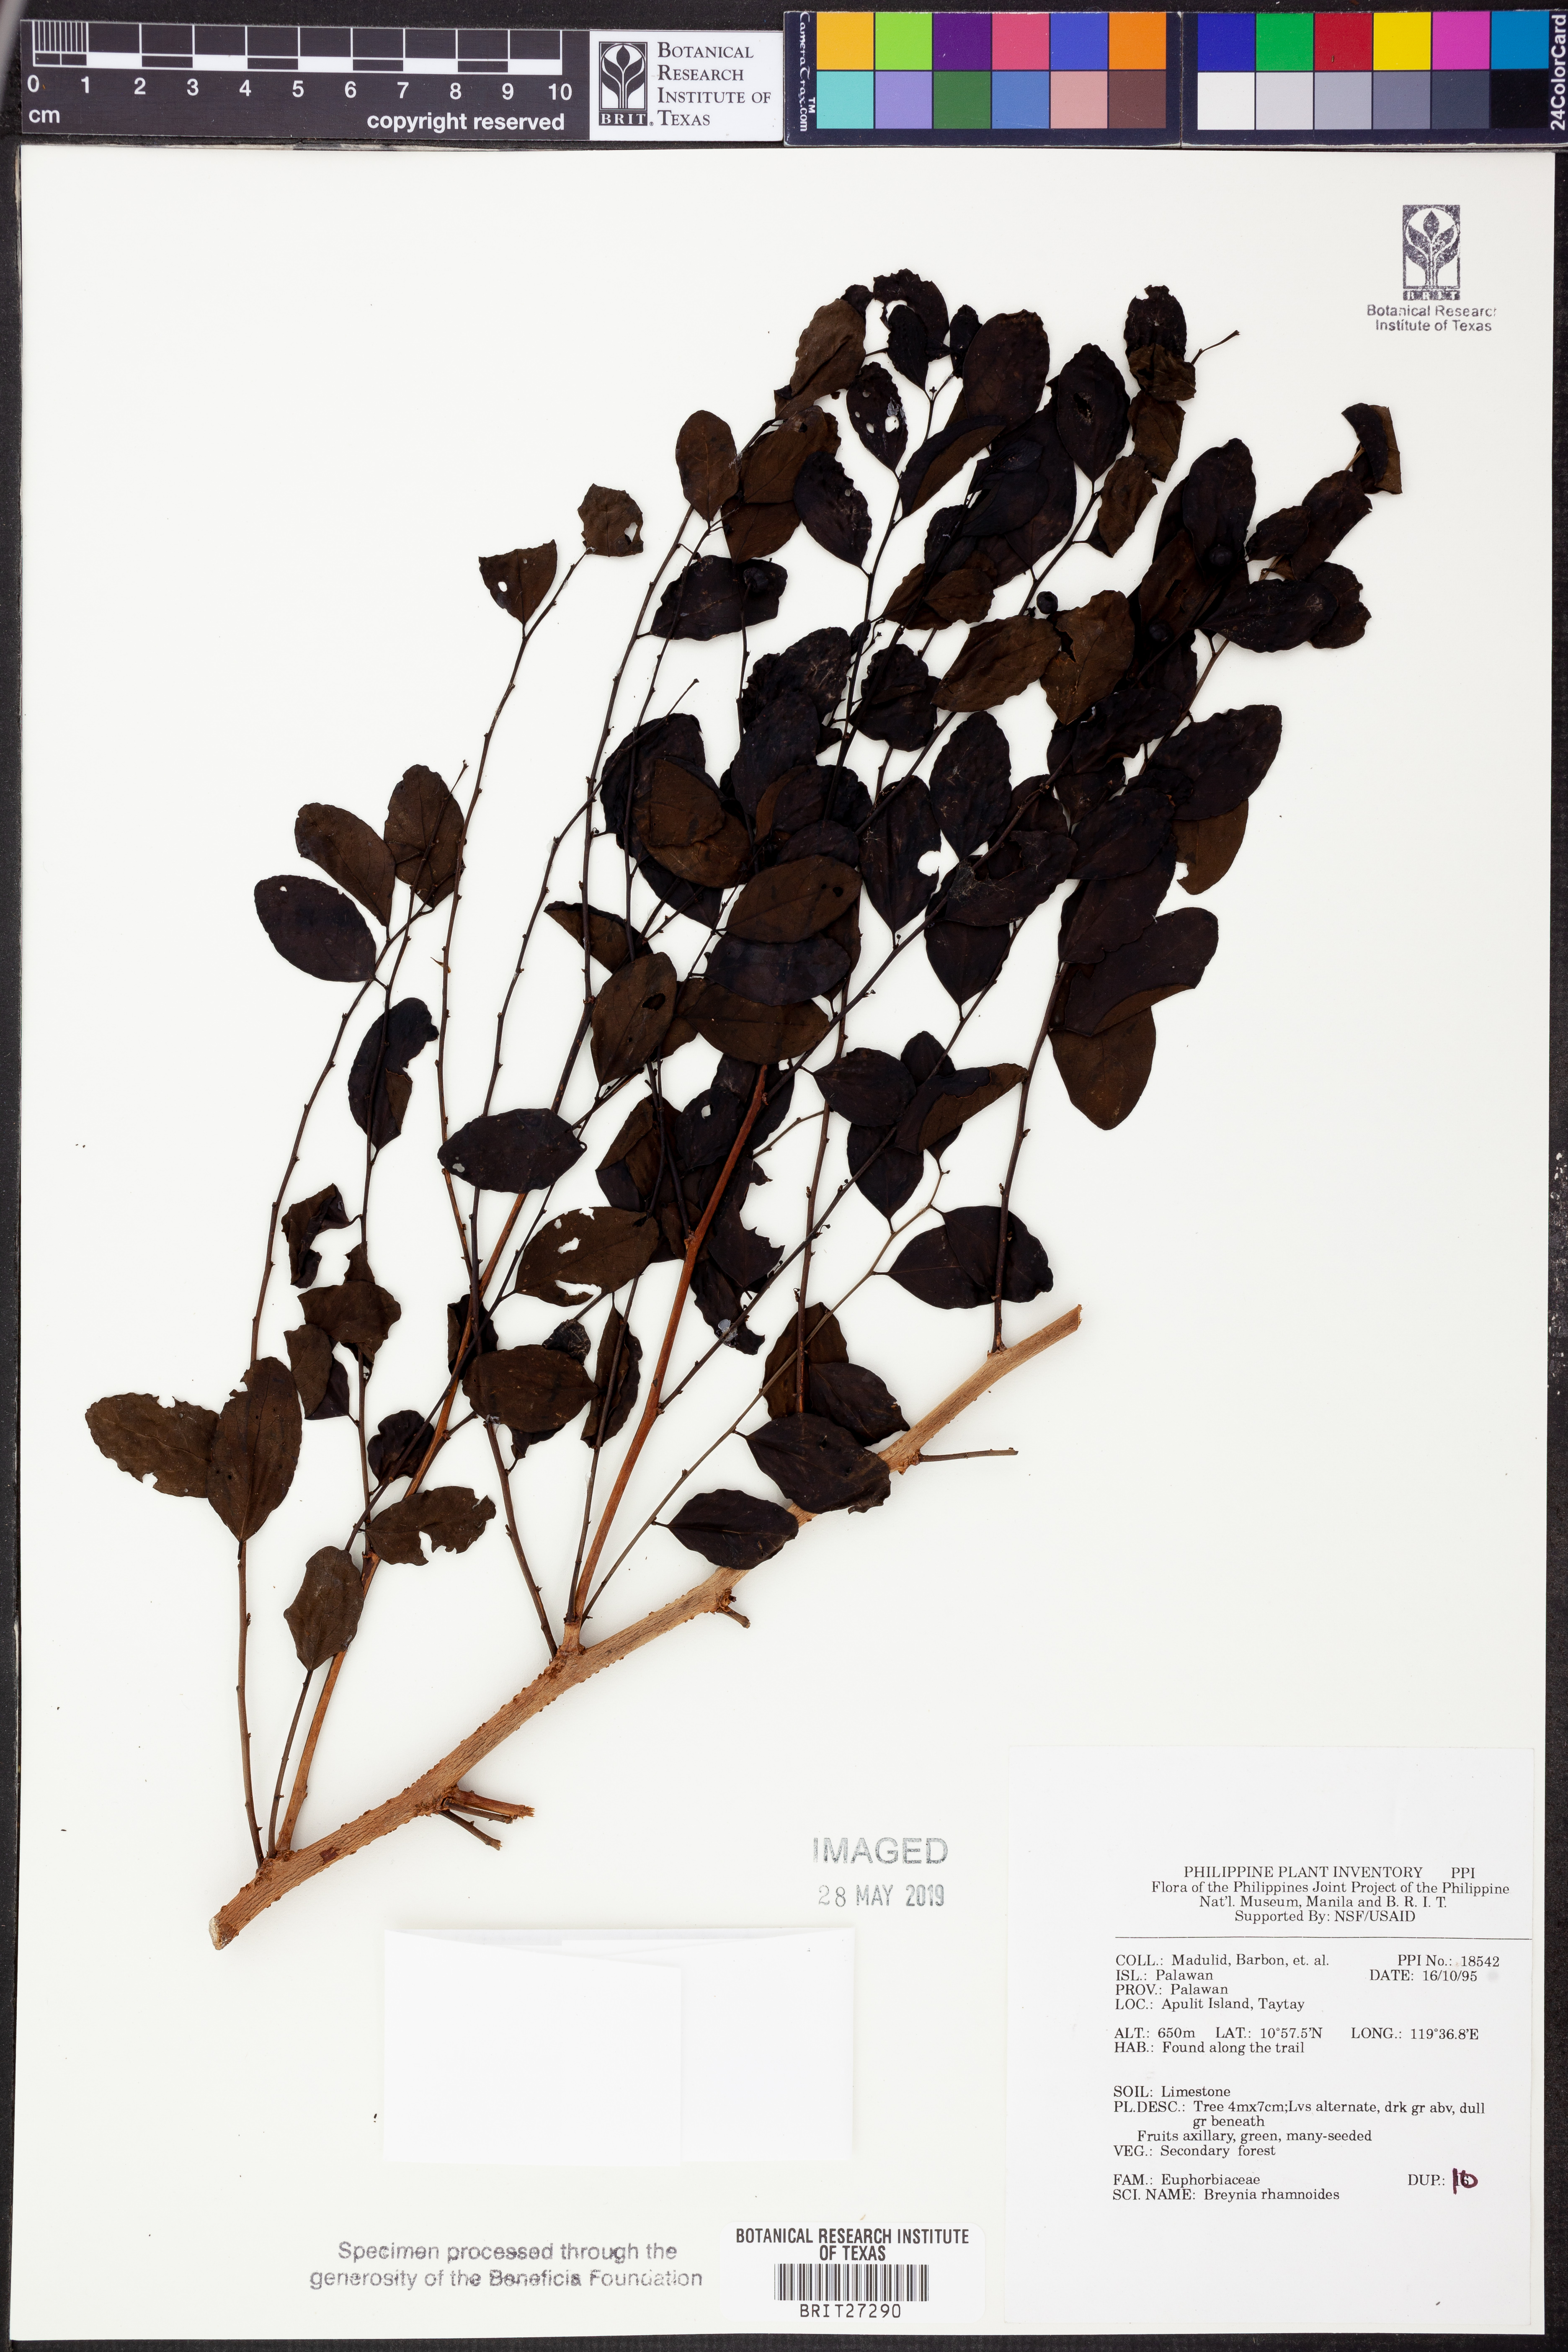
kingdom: Plantae
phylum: Tracheophyta
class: Magnoliopsida
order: Malpighiales
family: Phyllanthaceae
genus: Breynia
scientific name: Breynia vitis-idaea
